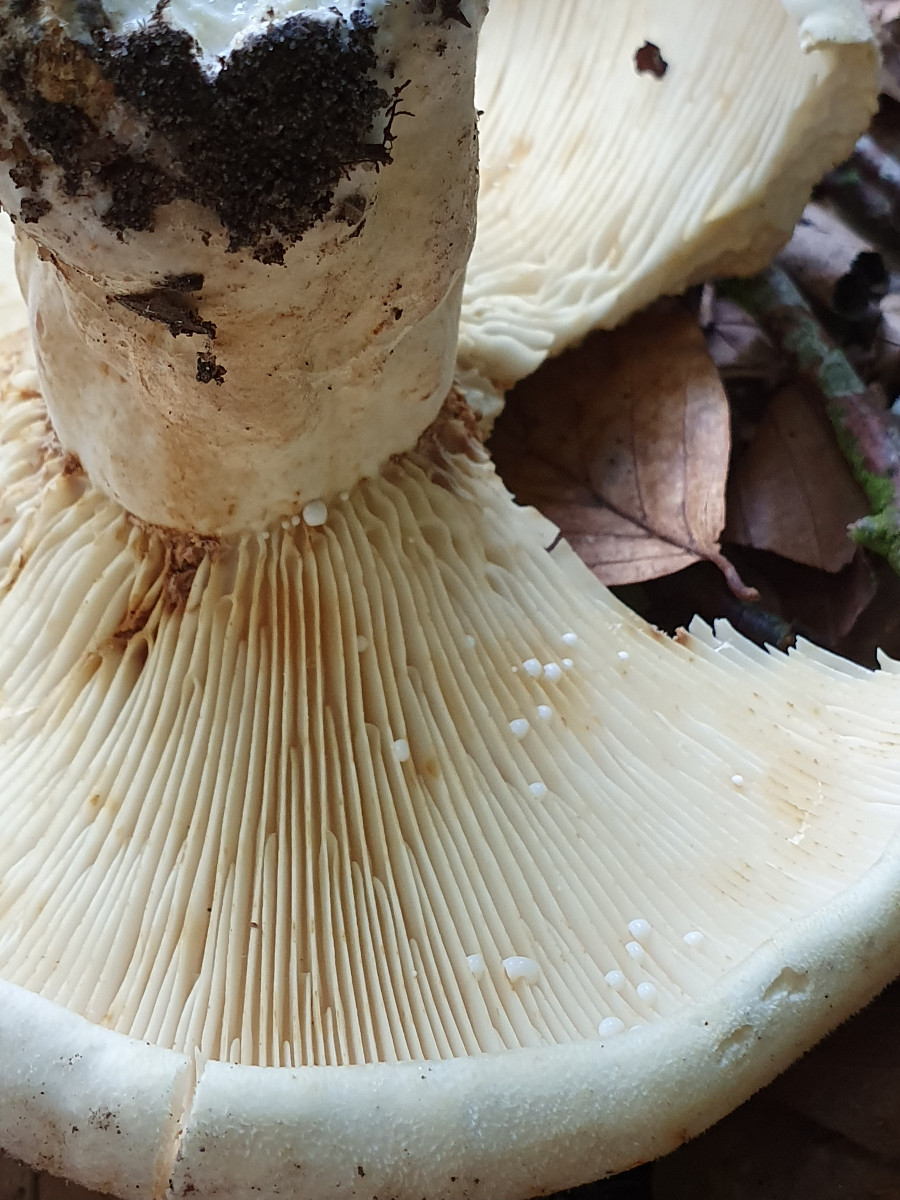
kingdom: Fungi
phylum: Basidiomycota
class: Agaricomycetes
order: Russulales
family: Russulaceae
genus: Lactifluus
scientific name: Lactifluus vellereus
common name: hvidfiltet mælkehat
